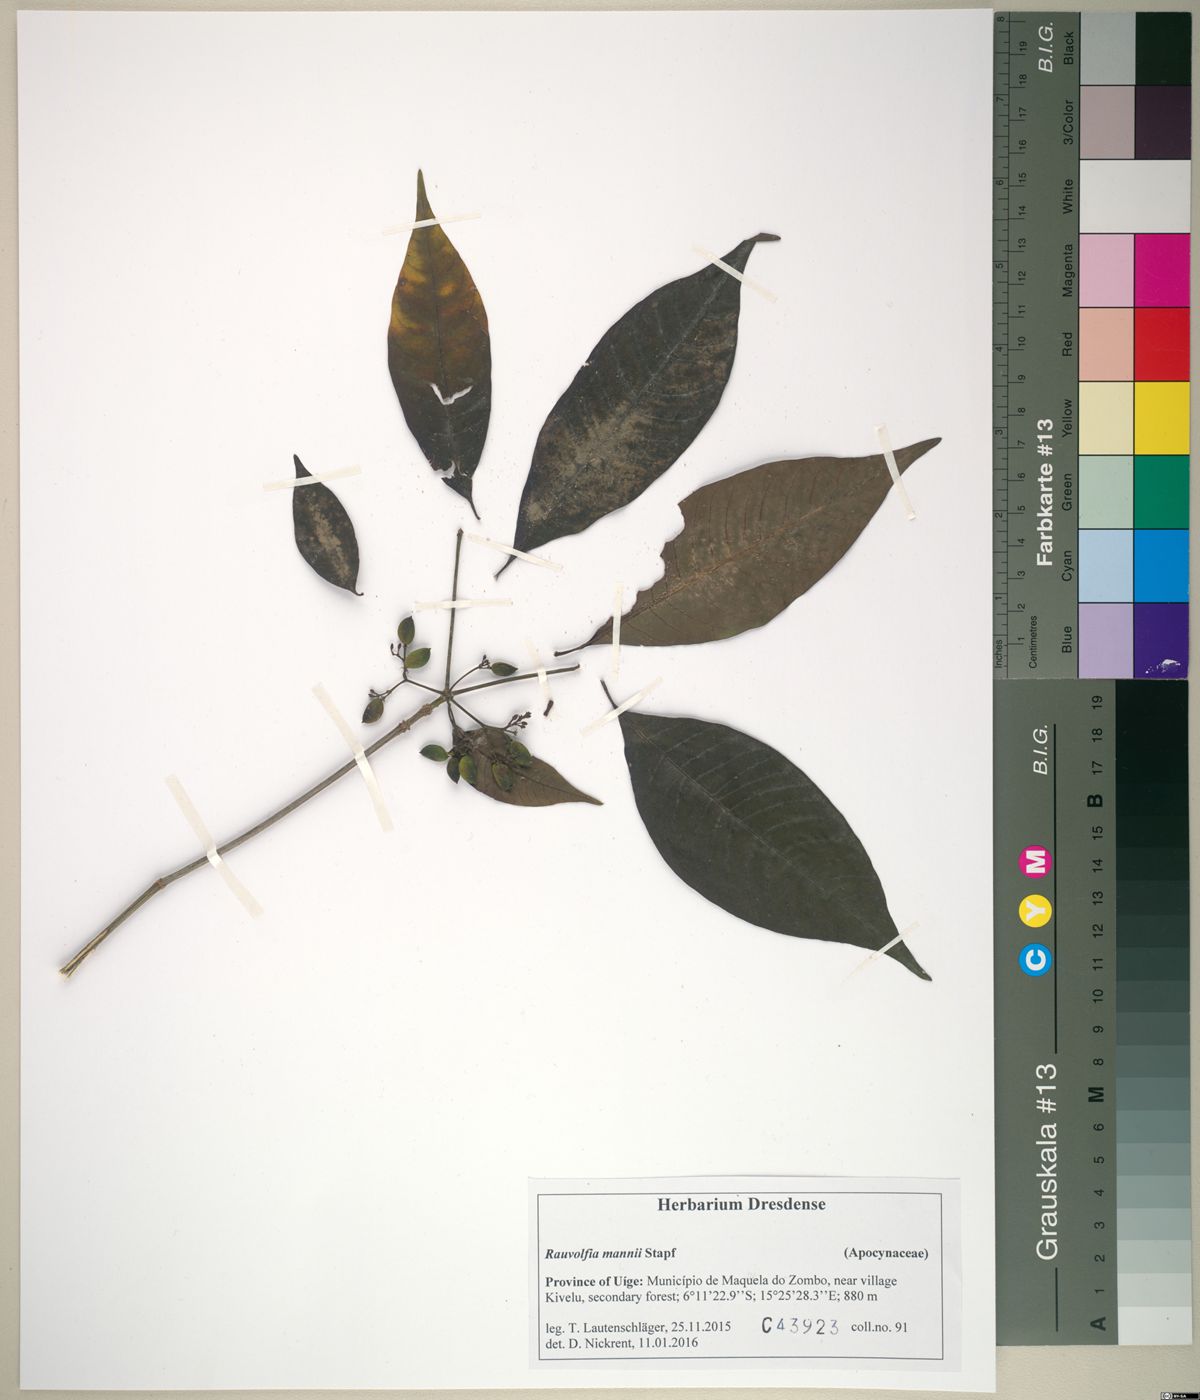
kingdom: Plantae
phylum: Tracheophyta
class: Magnoliopsida
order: Gentianales
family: Apocynaceae
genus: Rauvolfia
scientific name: Rauvolfia mannii
